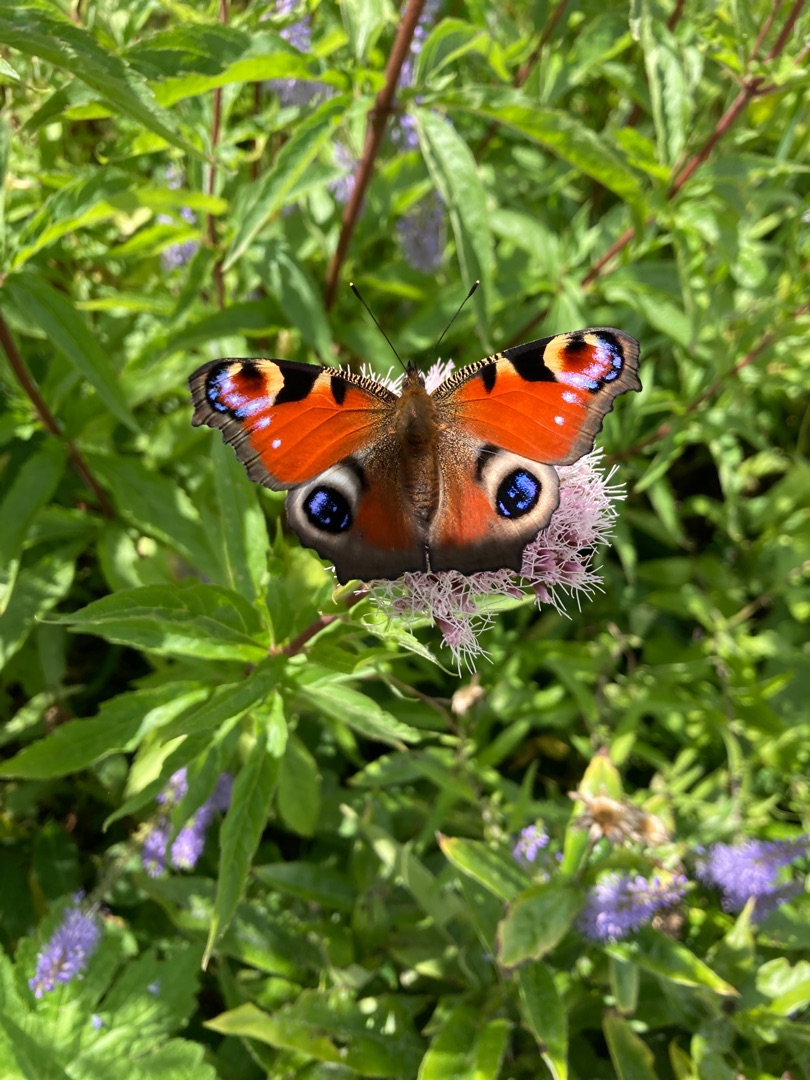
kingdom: Animalia
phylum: Arthropoda
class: Insecta
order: Lepidoptera
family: Nymphalidae
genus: Aglais
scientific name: Aglais io
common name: Dagpåfugleøje
